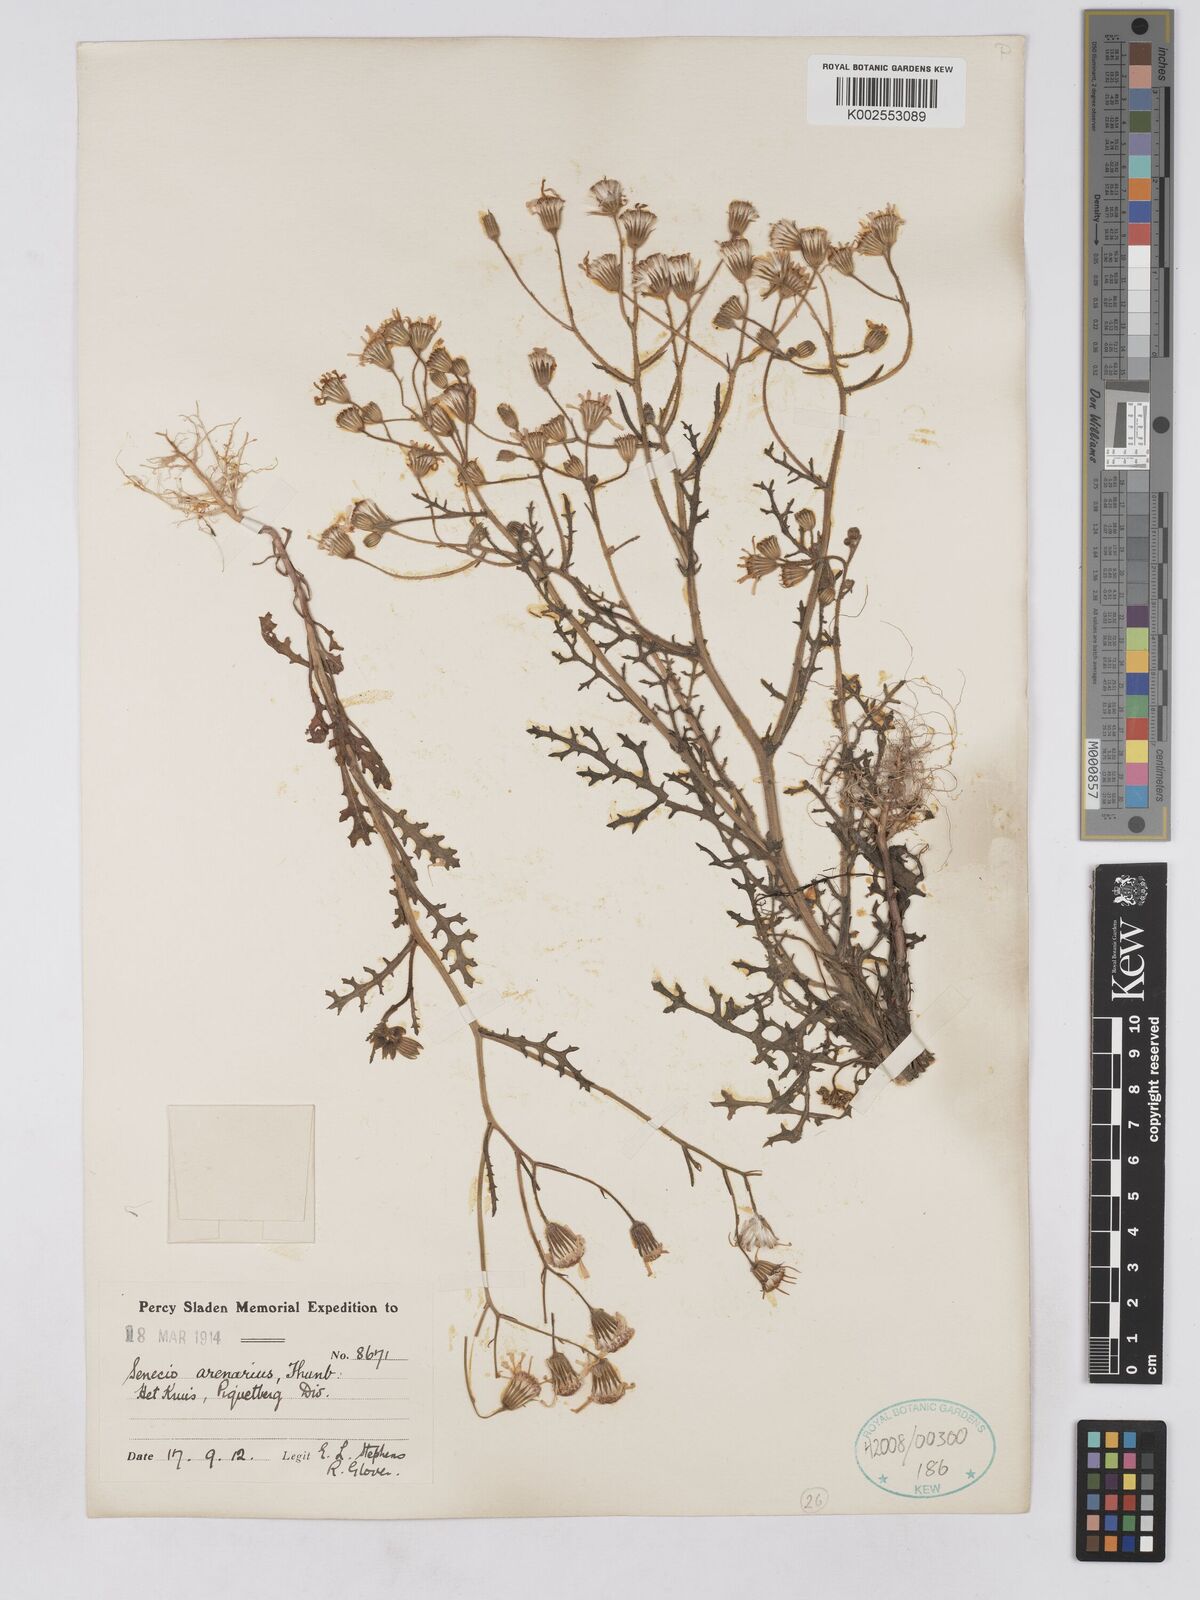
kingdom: Plantae
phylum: Tracheophyta
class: Magnoliopsida
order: Asterales
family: Asteraceae
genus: Senecio
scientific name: Senecio arenarius
